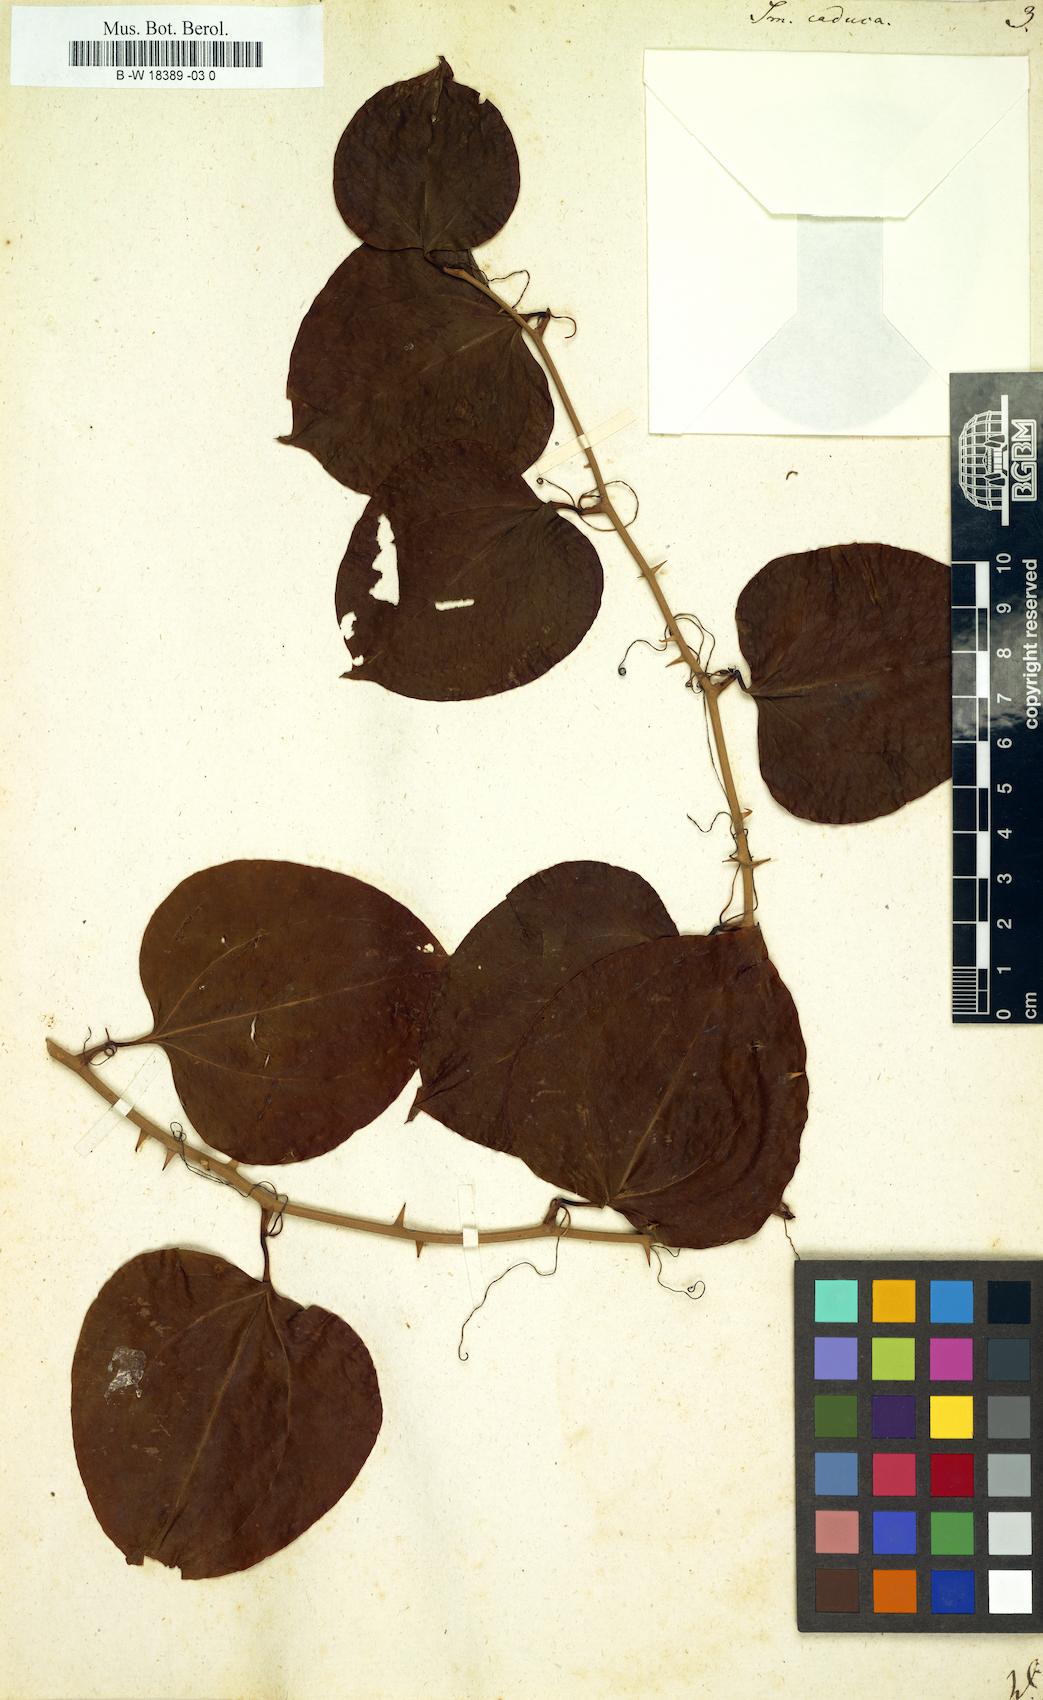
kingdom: Plantae
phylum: Tracheophyta
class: Liliopsida
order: Liliales
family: Smilacaceae
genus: Smilax
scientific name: Smilax caduca
